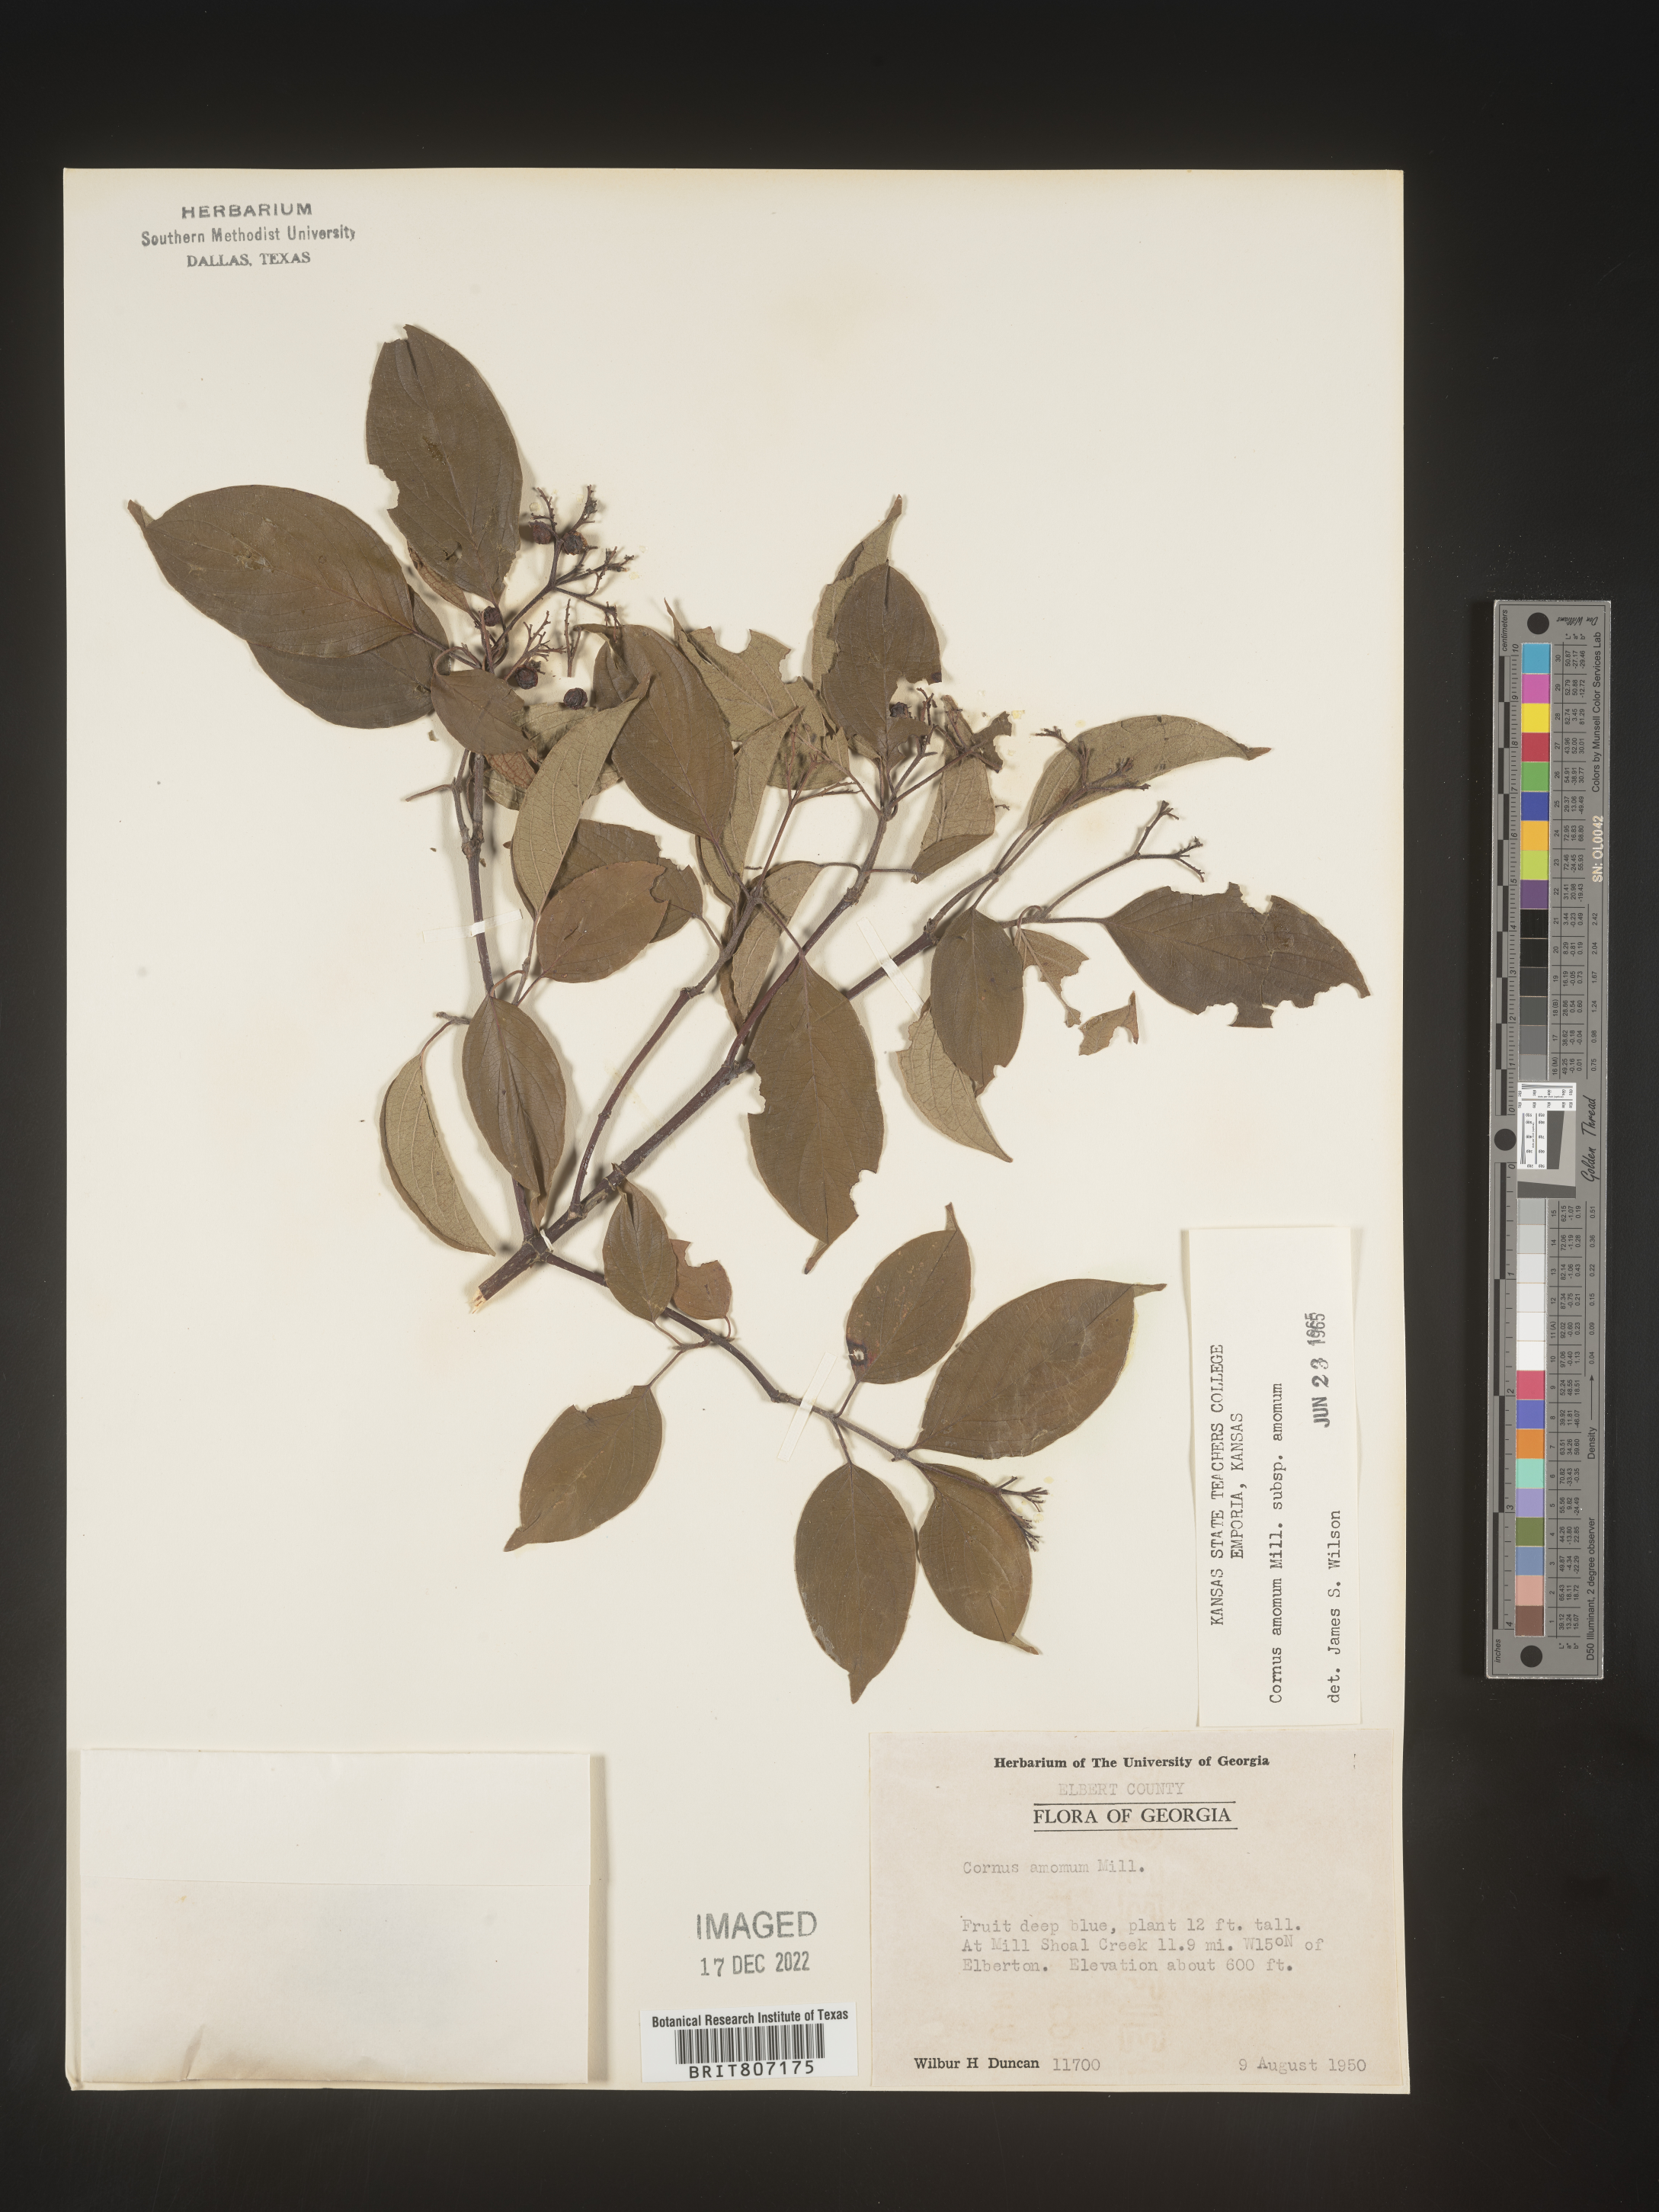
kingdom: Plantae
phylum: Tracheophyta
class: Magnoliopsida
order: Cornales
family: Cornaceae
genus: Cornus
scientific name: Cornus amomum
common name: Silky dogwood
